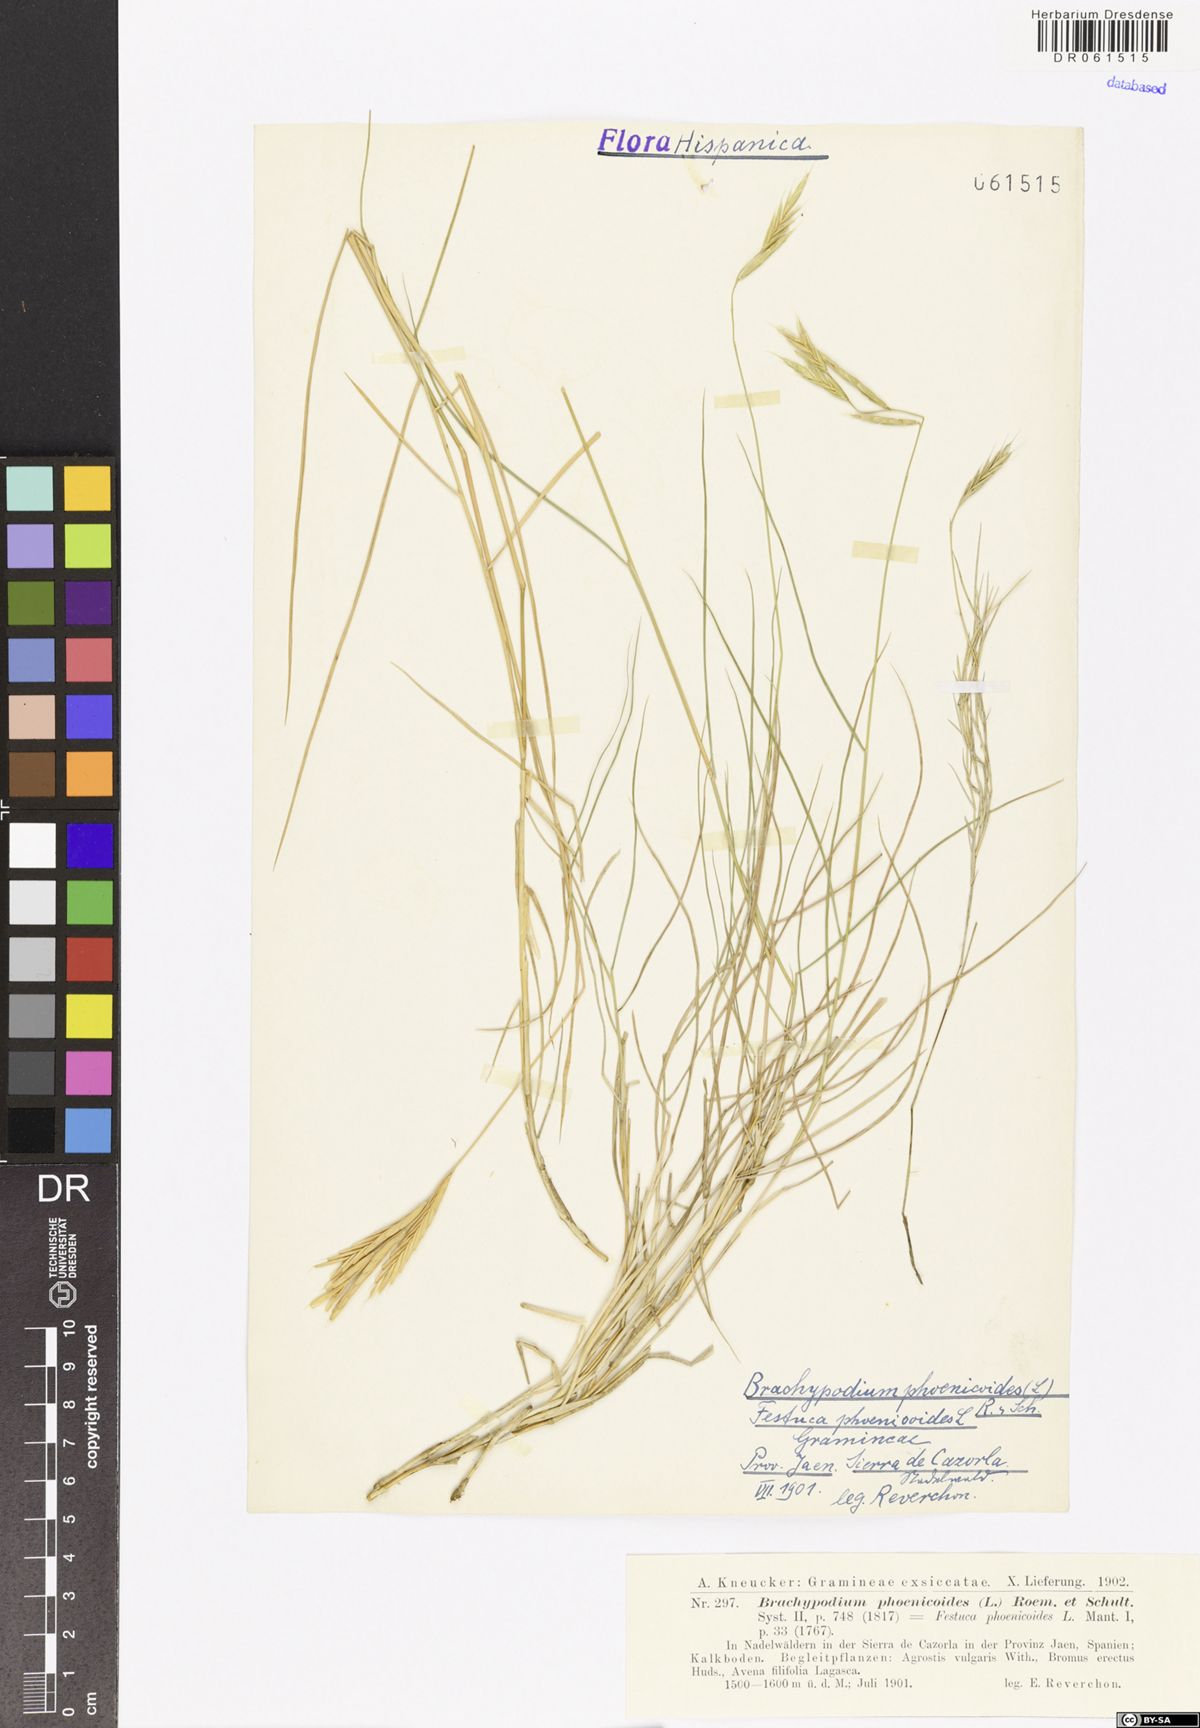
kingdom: Plantae
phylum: Tracheophyta
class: Liliopsida
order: Poales
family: Poaceae
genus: Brachypodium
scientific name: Brachypodium phoenicoides
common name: Thinleaf false brome
